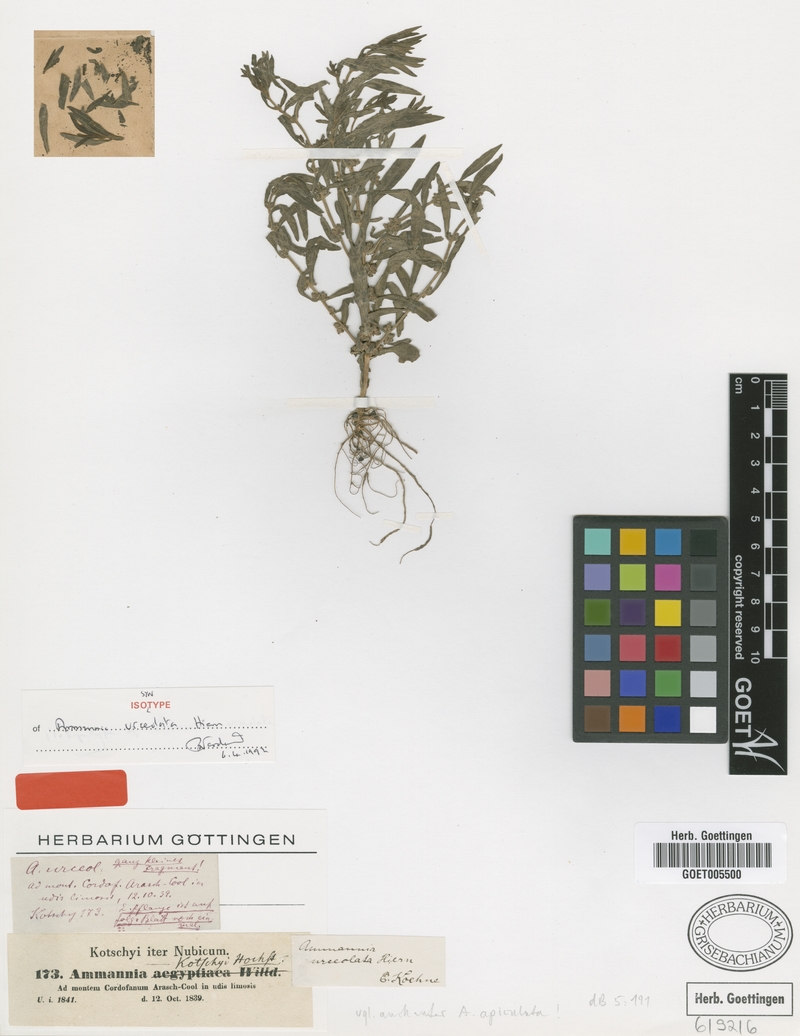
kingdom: Plantae
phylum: Tracheophyta
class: Magnoliopsida
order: Myrtales
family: Lythraceae
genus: Ammannia
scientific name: Ammannia urceolata
